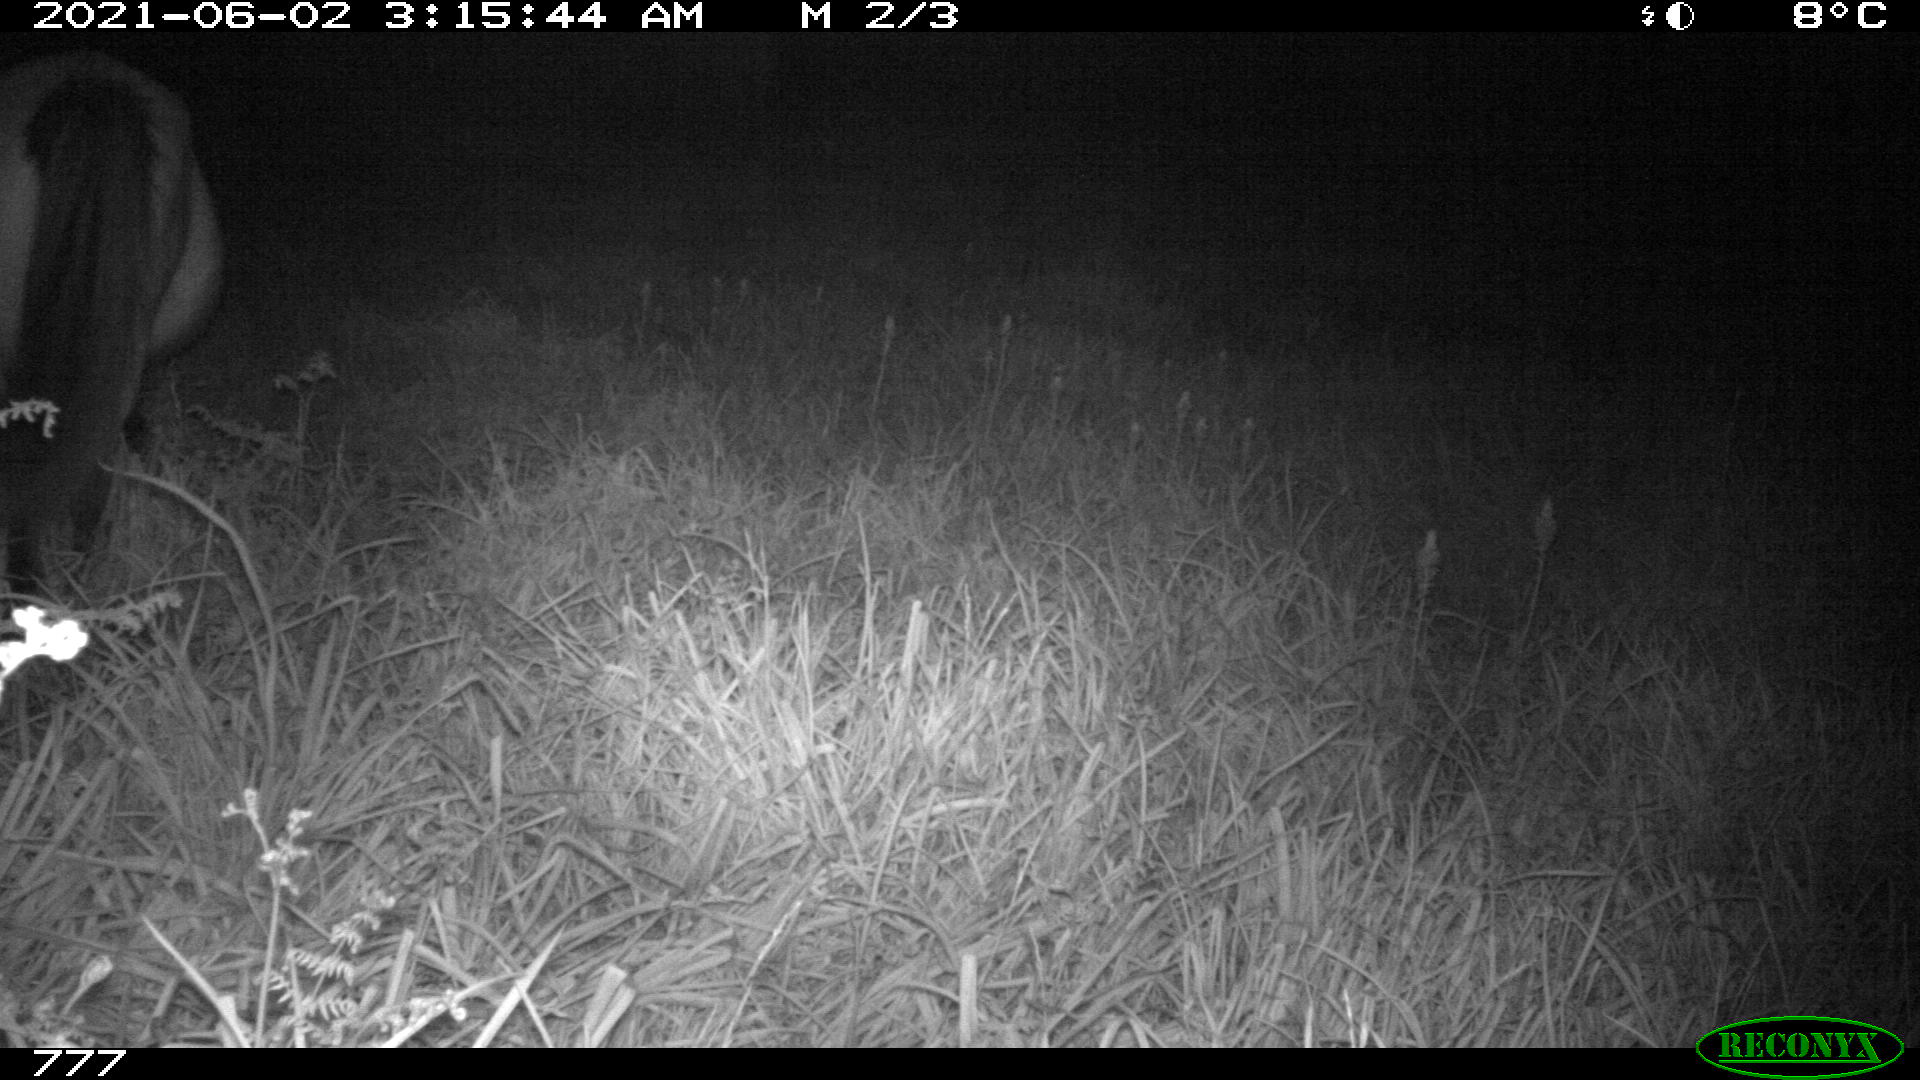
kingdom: Animalia
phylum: Chordata
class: Mammalia
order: Perissodactyla
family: Equidae
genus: Equus
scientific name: Equus caballus
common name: Horse
